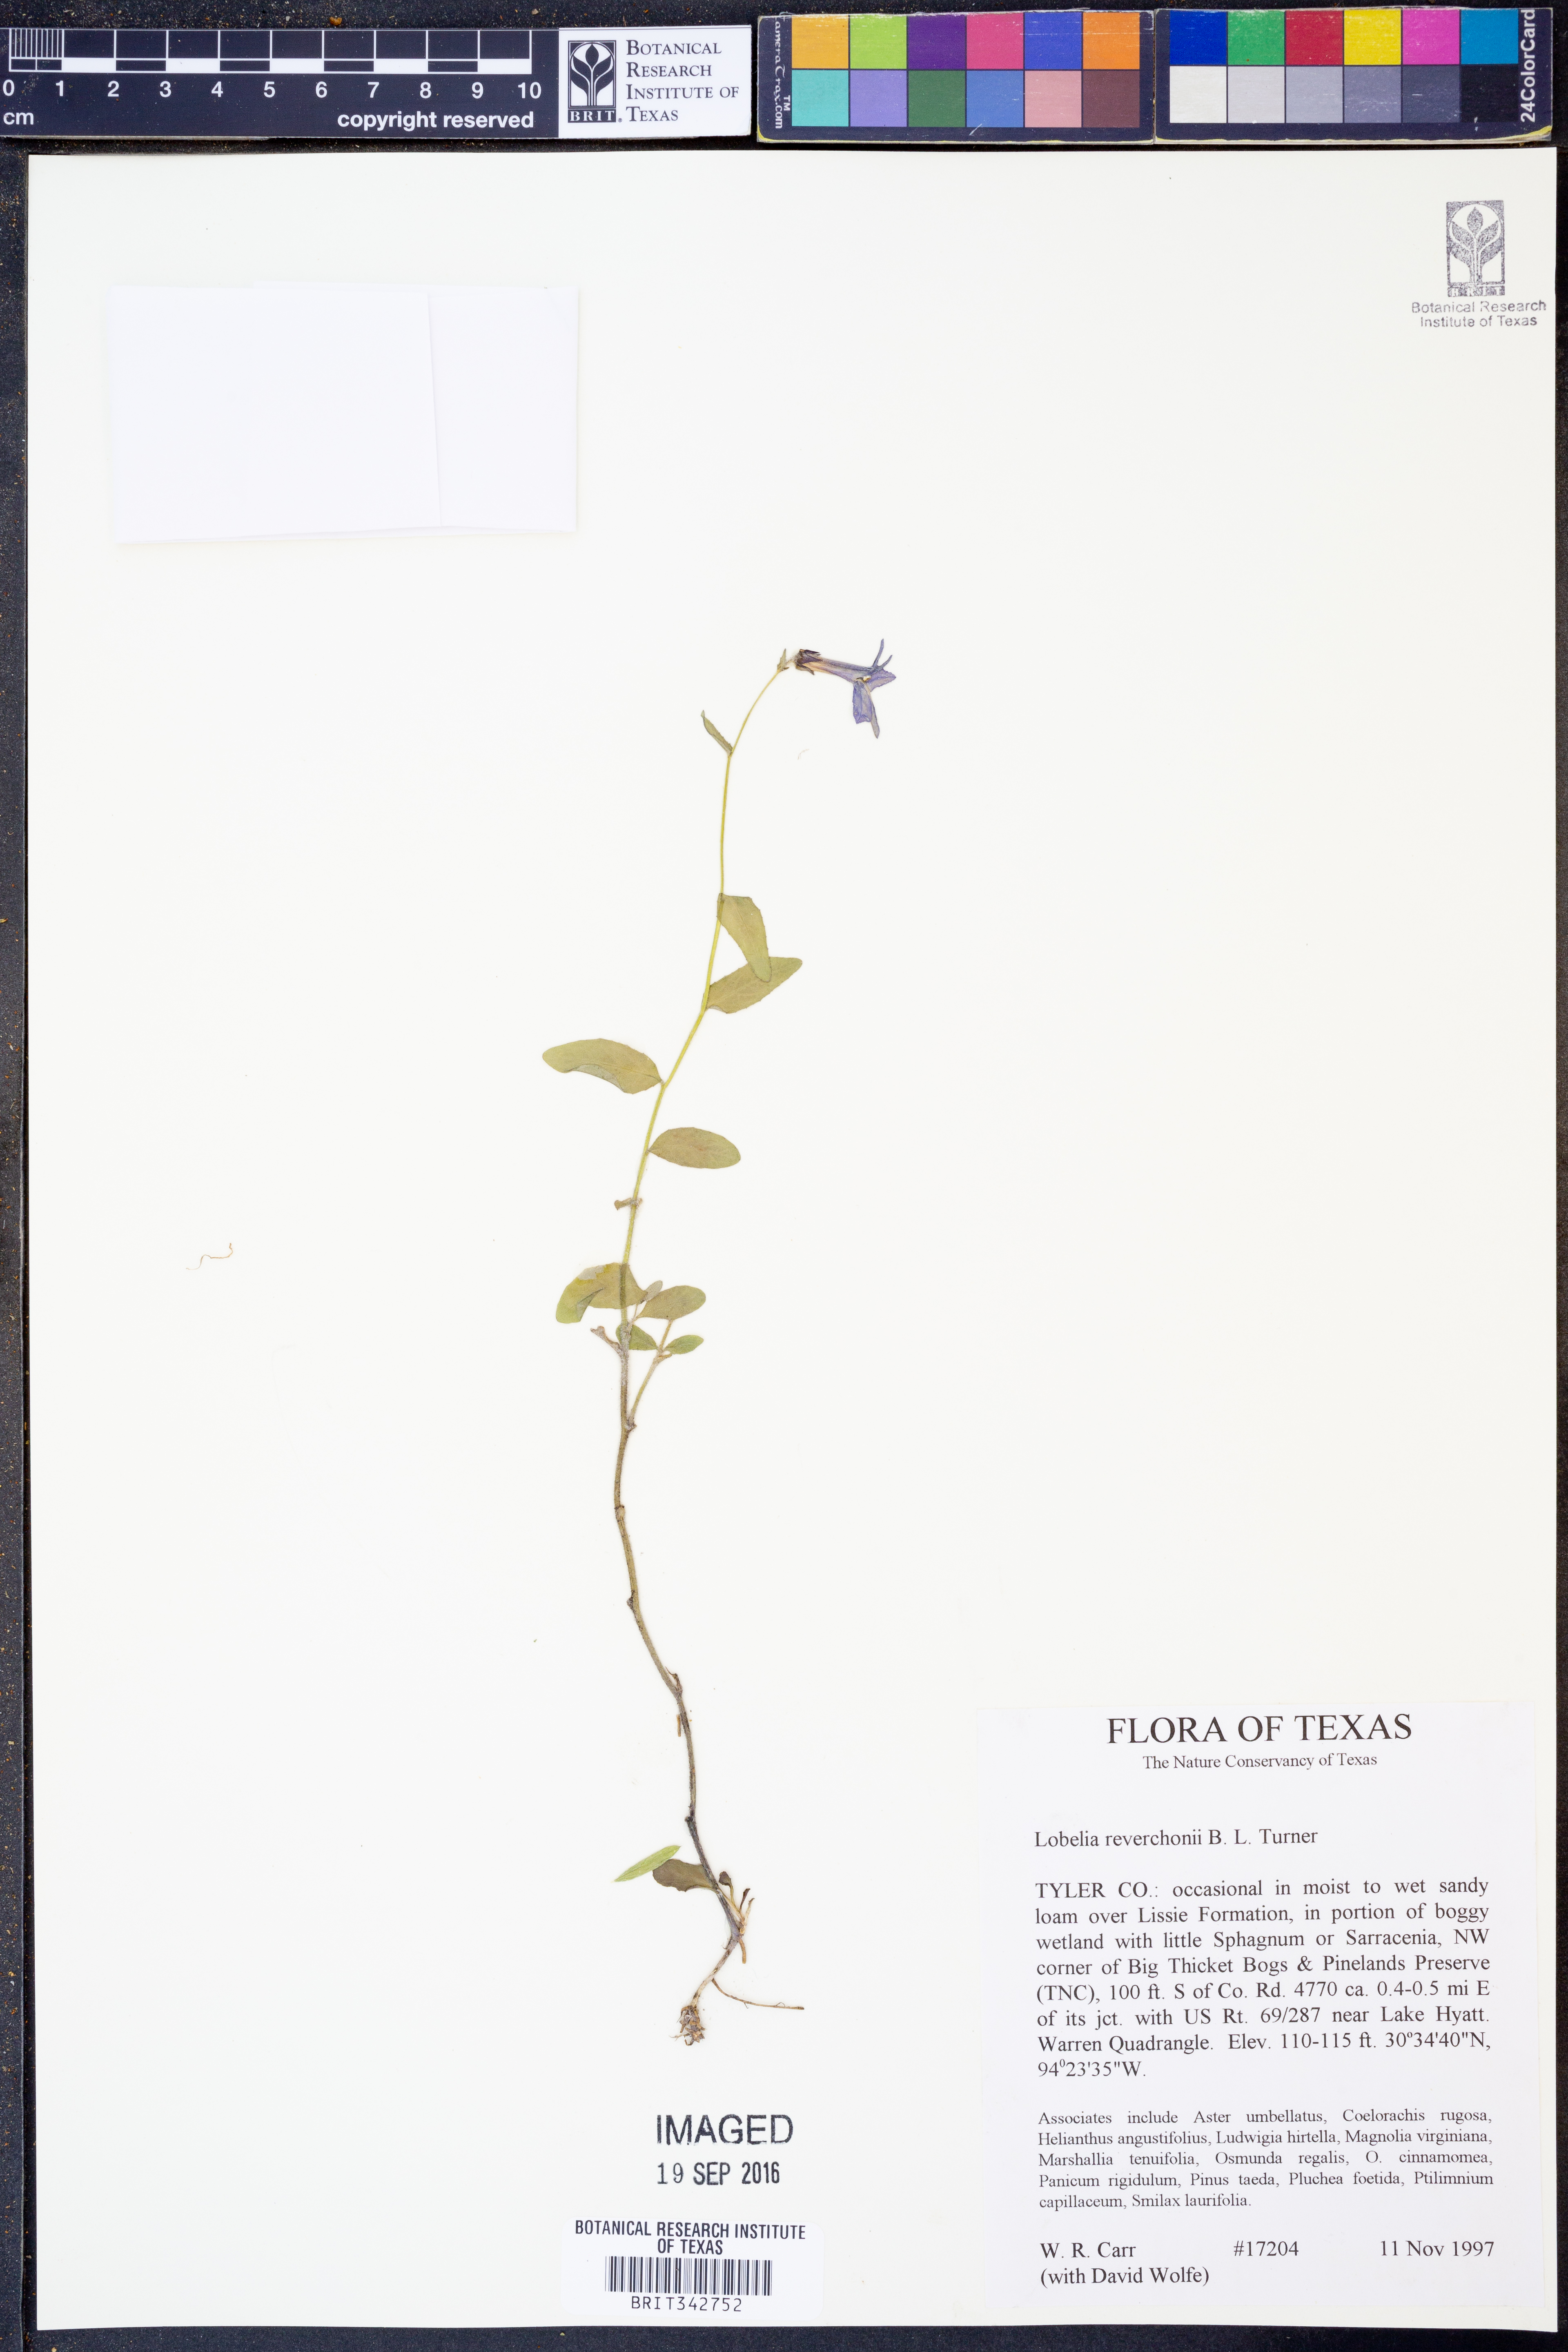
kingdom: Plantae
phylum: Tracheophyta
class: Magnoliopsida
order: Asterales
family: Campanulaceae
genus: Lobelia
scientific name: Lobelia reverchonii
